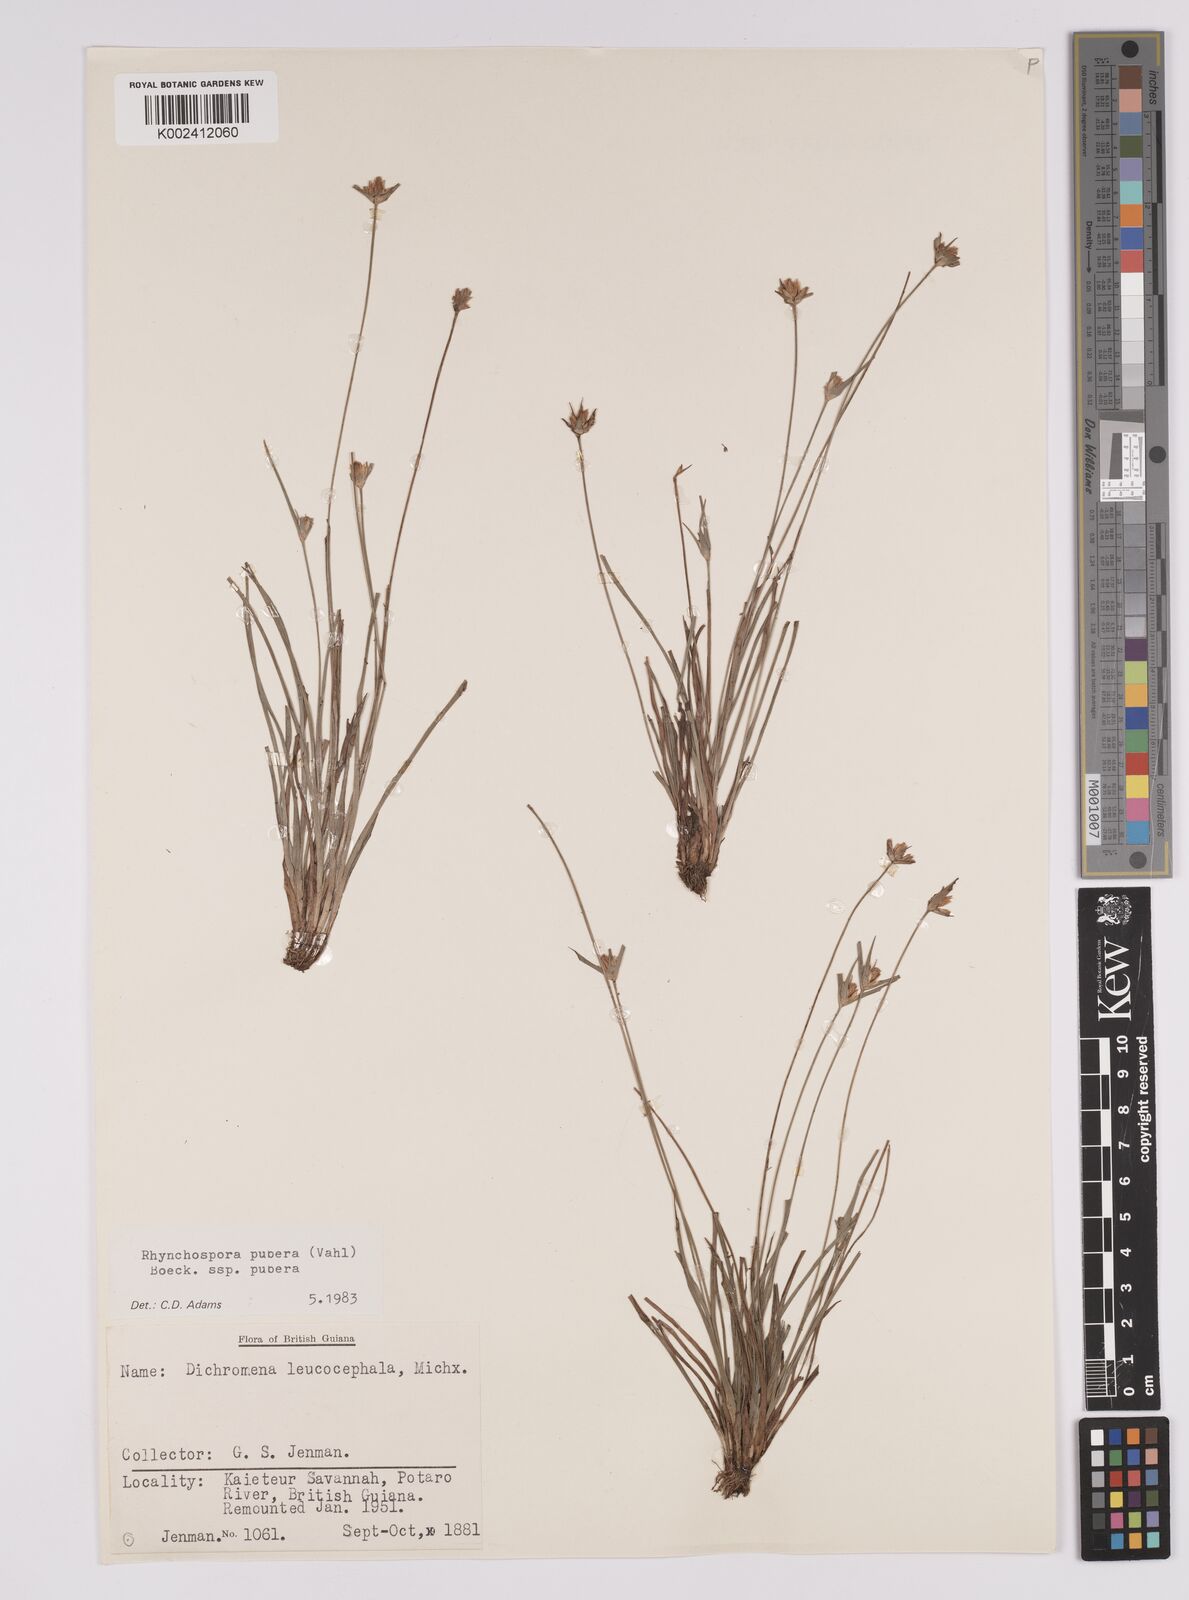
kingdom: Plantae
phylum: Tracheophyta
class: Liliopsida
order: Poales
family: Cyperaceae
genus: Rhynchospora
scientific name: Rhynchospora pubera
